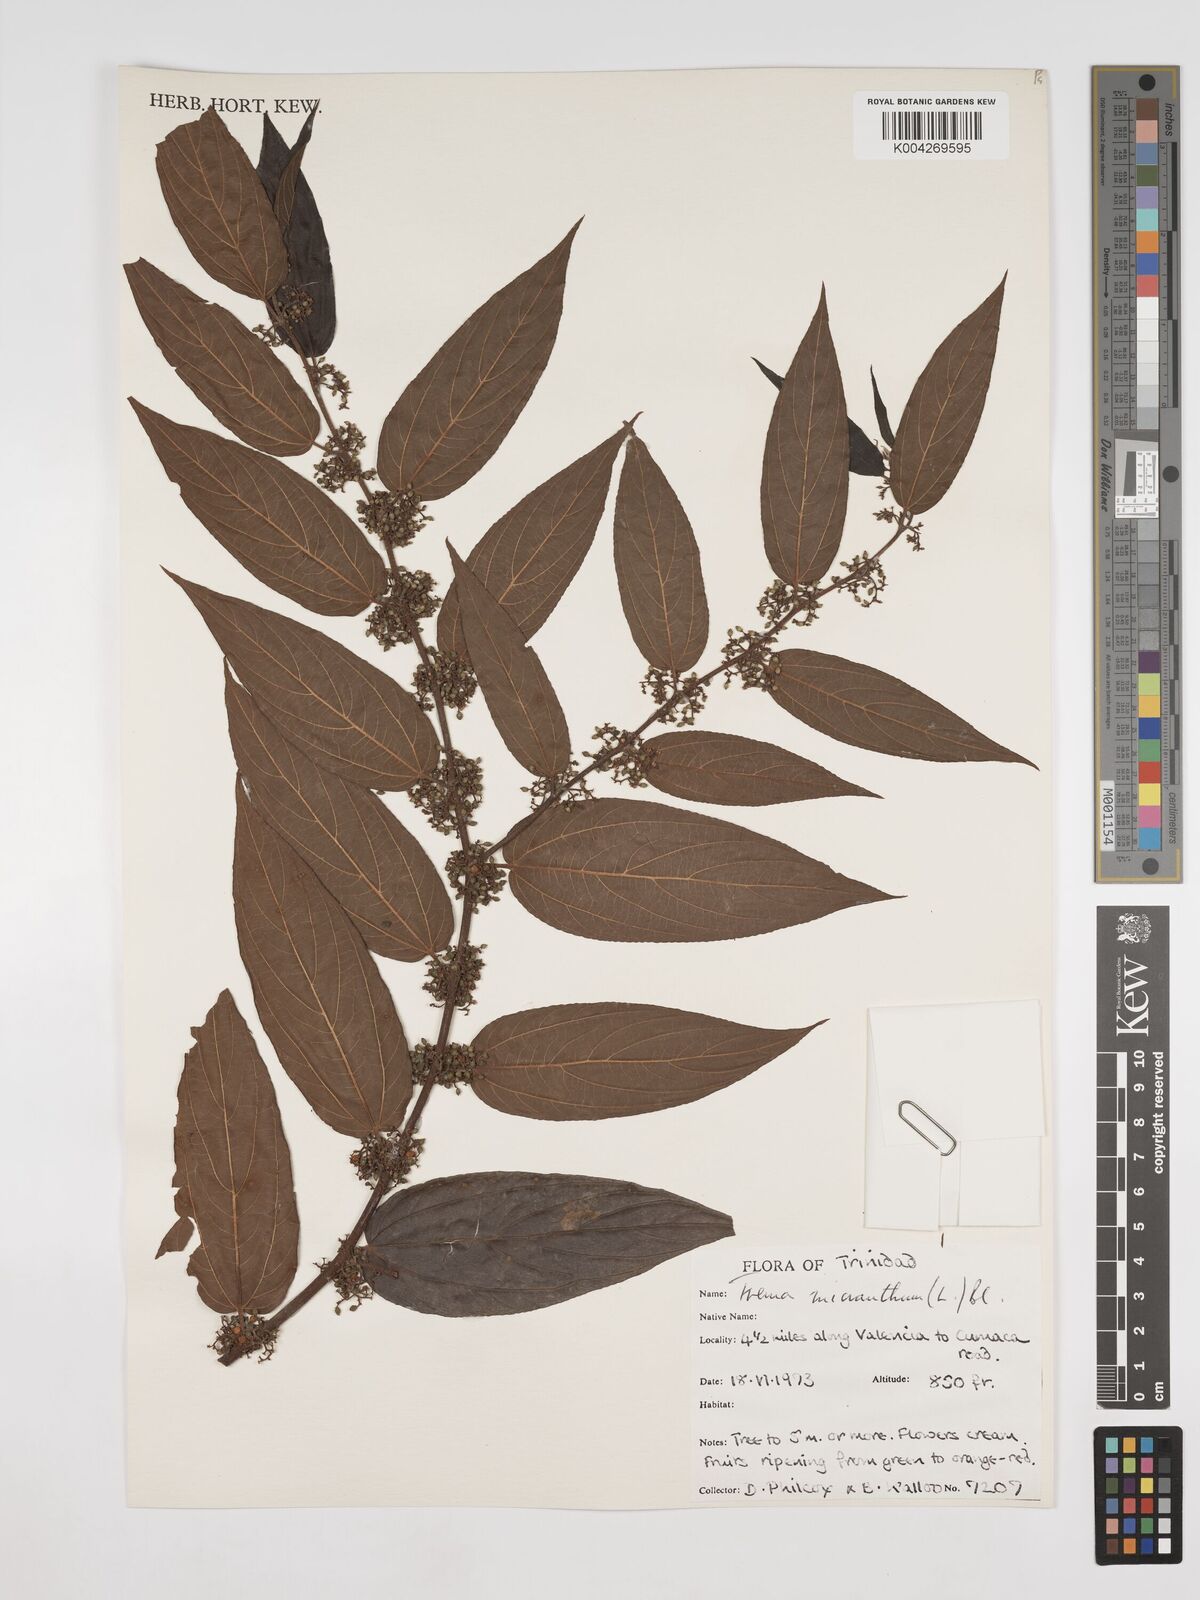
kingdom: Plantae
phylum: Tracheophyta
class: Magnoliopsida
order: Rosales
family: Cannabaceae
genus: Trema
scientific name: Trema micranthum
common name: Jamaican nettletree
